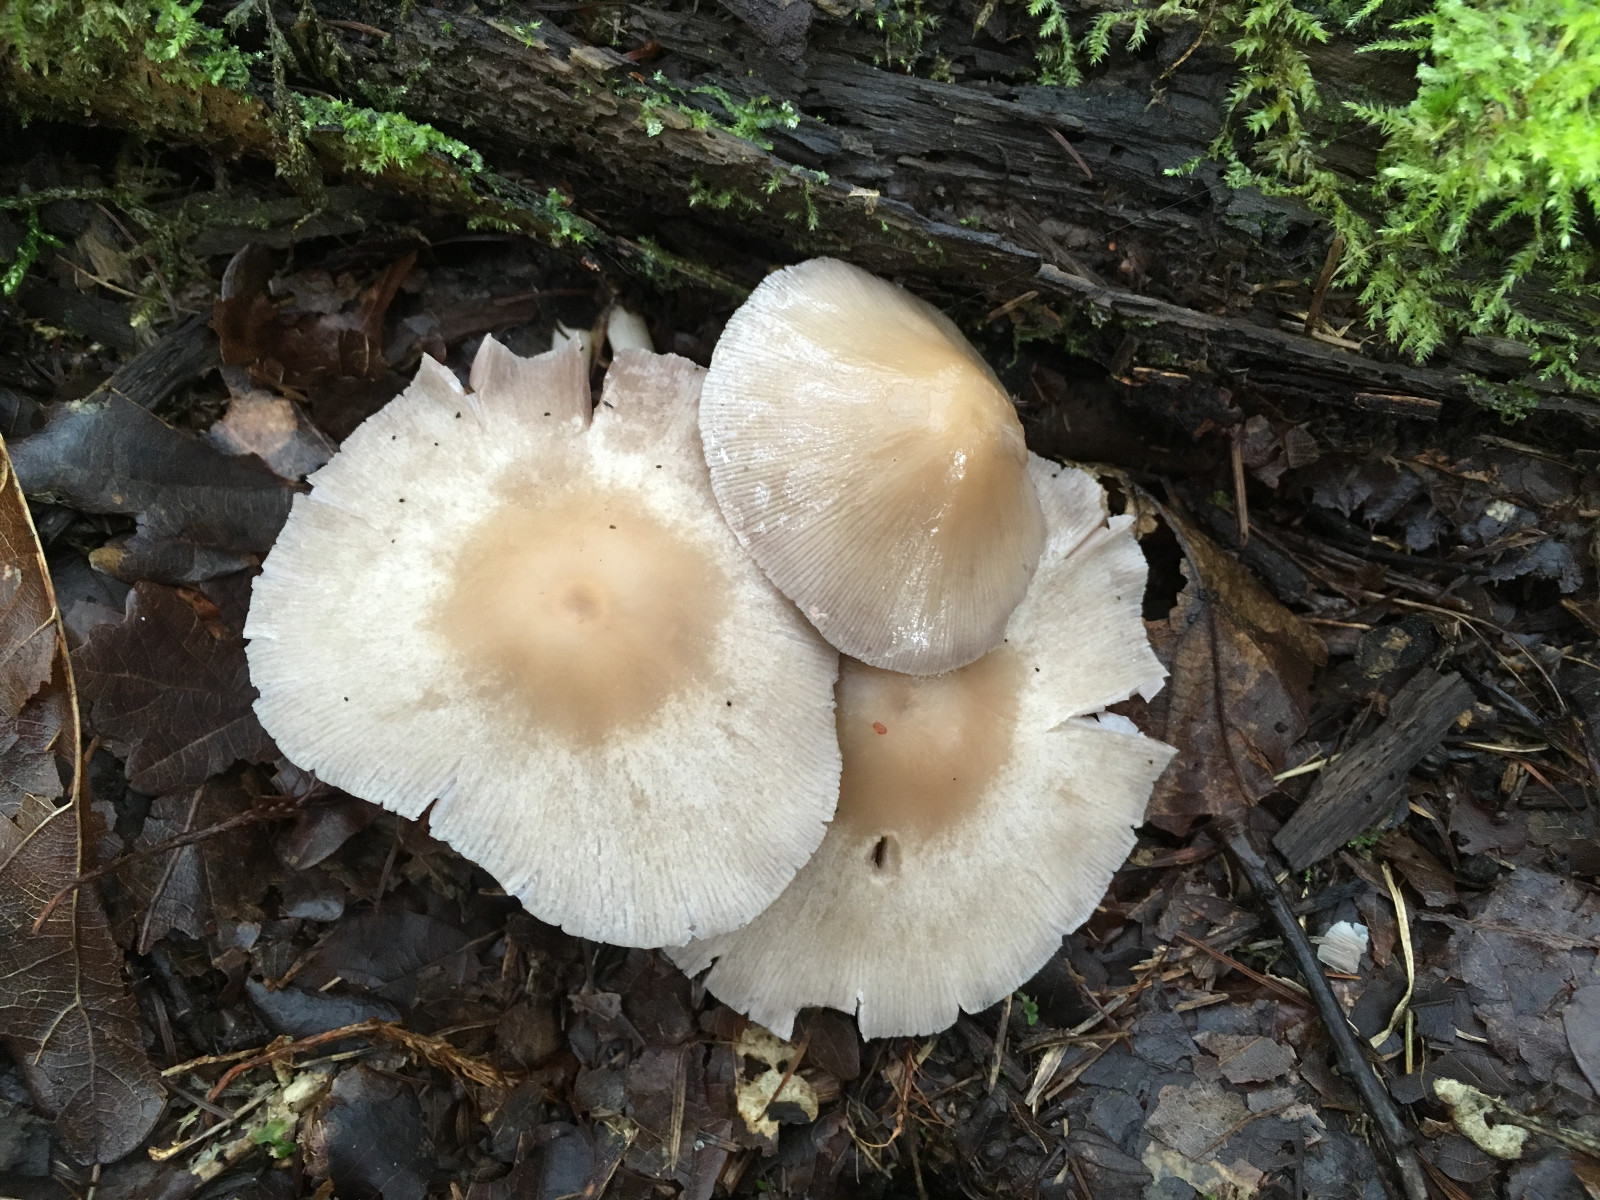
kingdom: Fungi
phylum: Basidiomycota
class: Agaricomycetes
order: Agaricales
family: Psathyrellaceae
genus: Candolleomyces
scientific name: Candolleomyces candolleanus
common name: Candolles mørkhat
